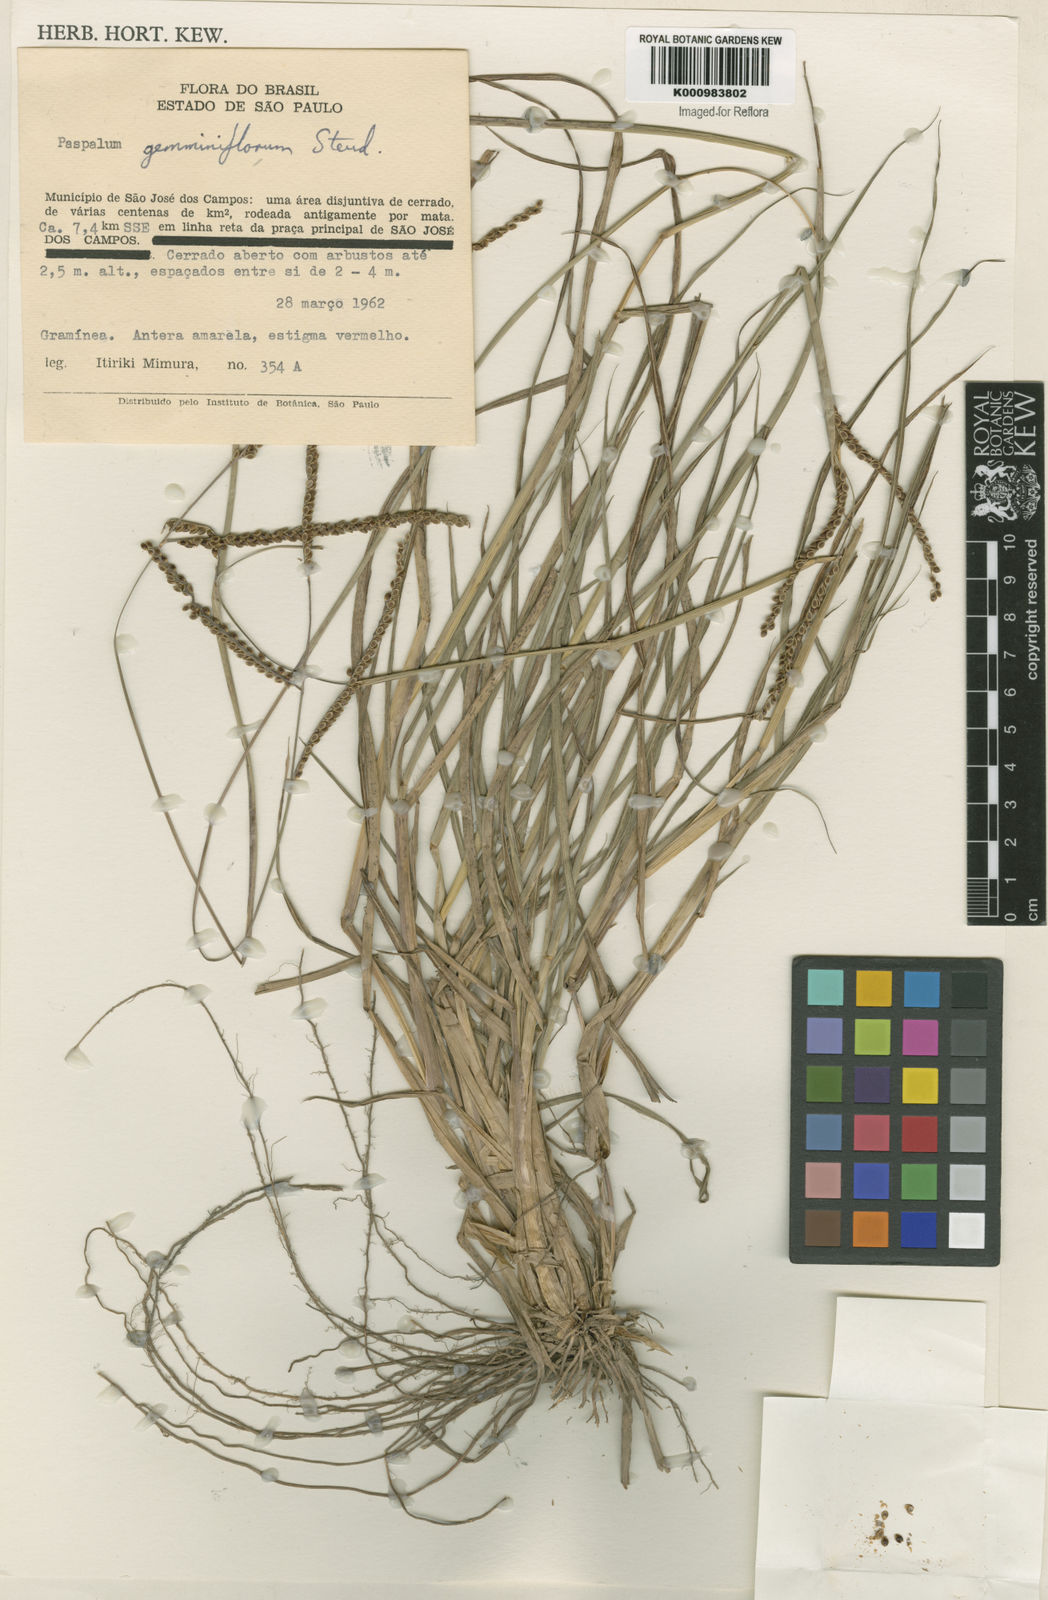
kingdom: Plantae
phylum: Tracheophyta
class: Liliopsida
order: Poales
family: Poaceae
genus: Paspalum
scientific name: Paspalum plicatulum
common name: Top paspalum
